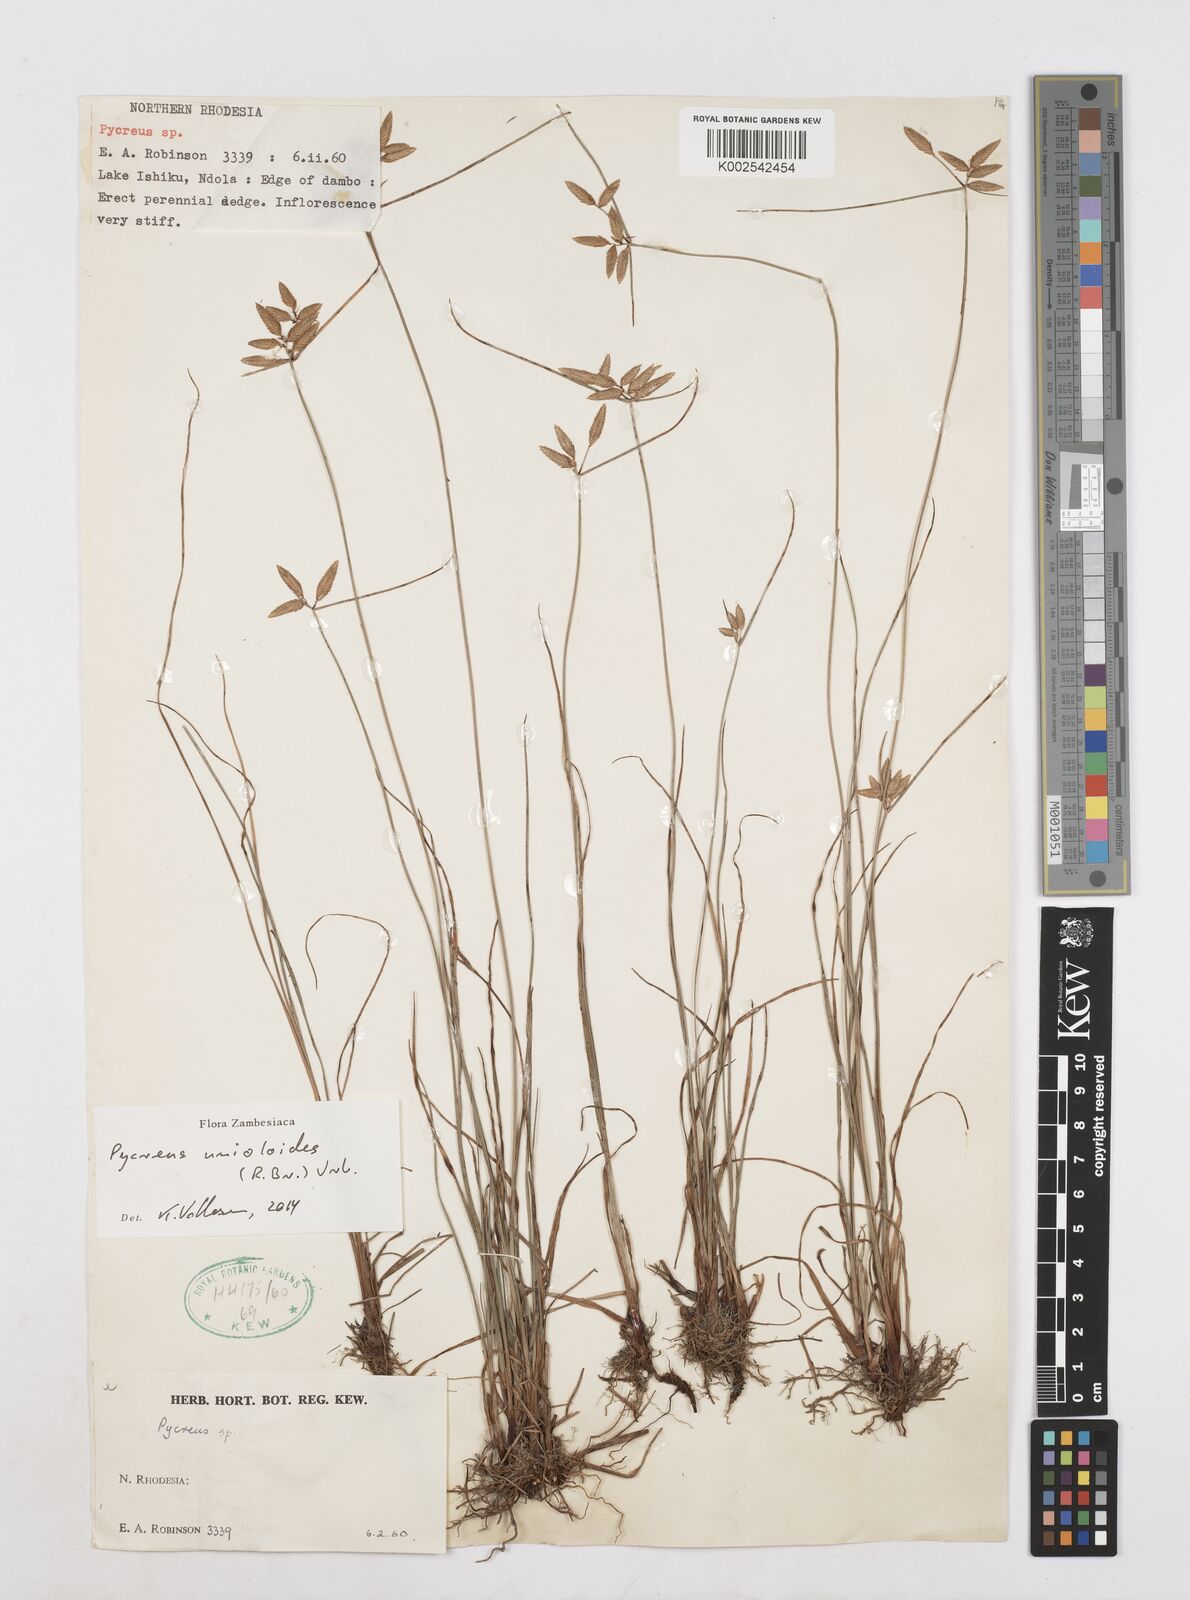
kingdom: Plantae
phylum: Tracheophyta
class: Liliopsida
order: Poales
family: Cyperaceae
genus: Cyperus
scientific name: Cyperus unioloides
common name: Uniola flatsedge
